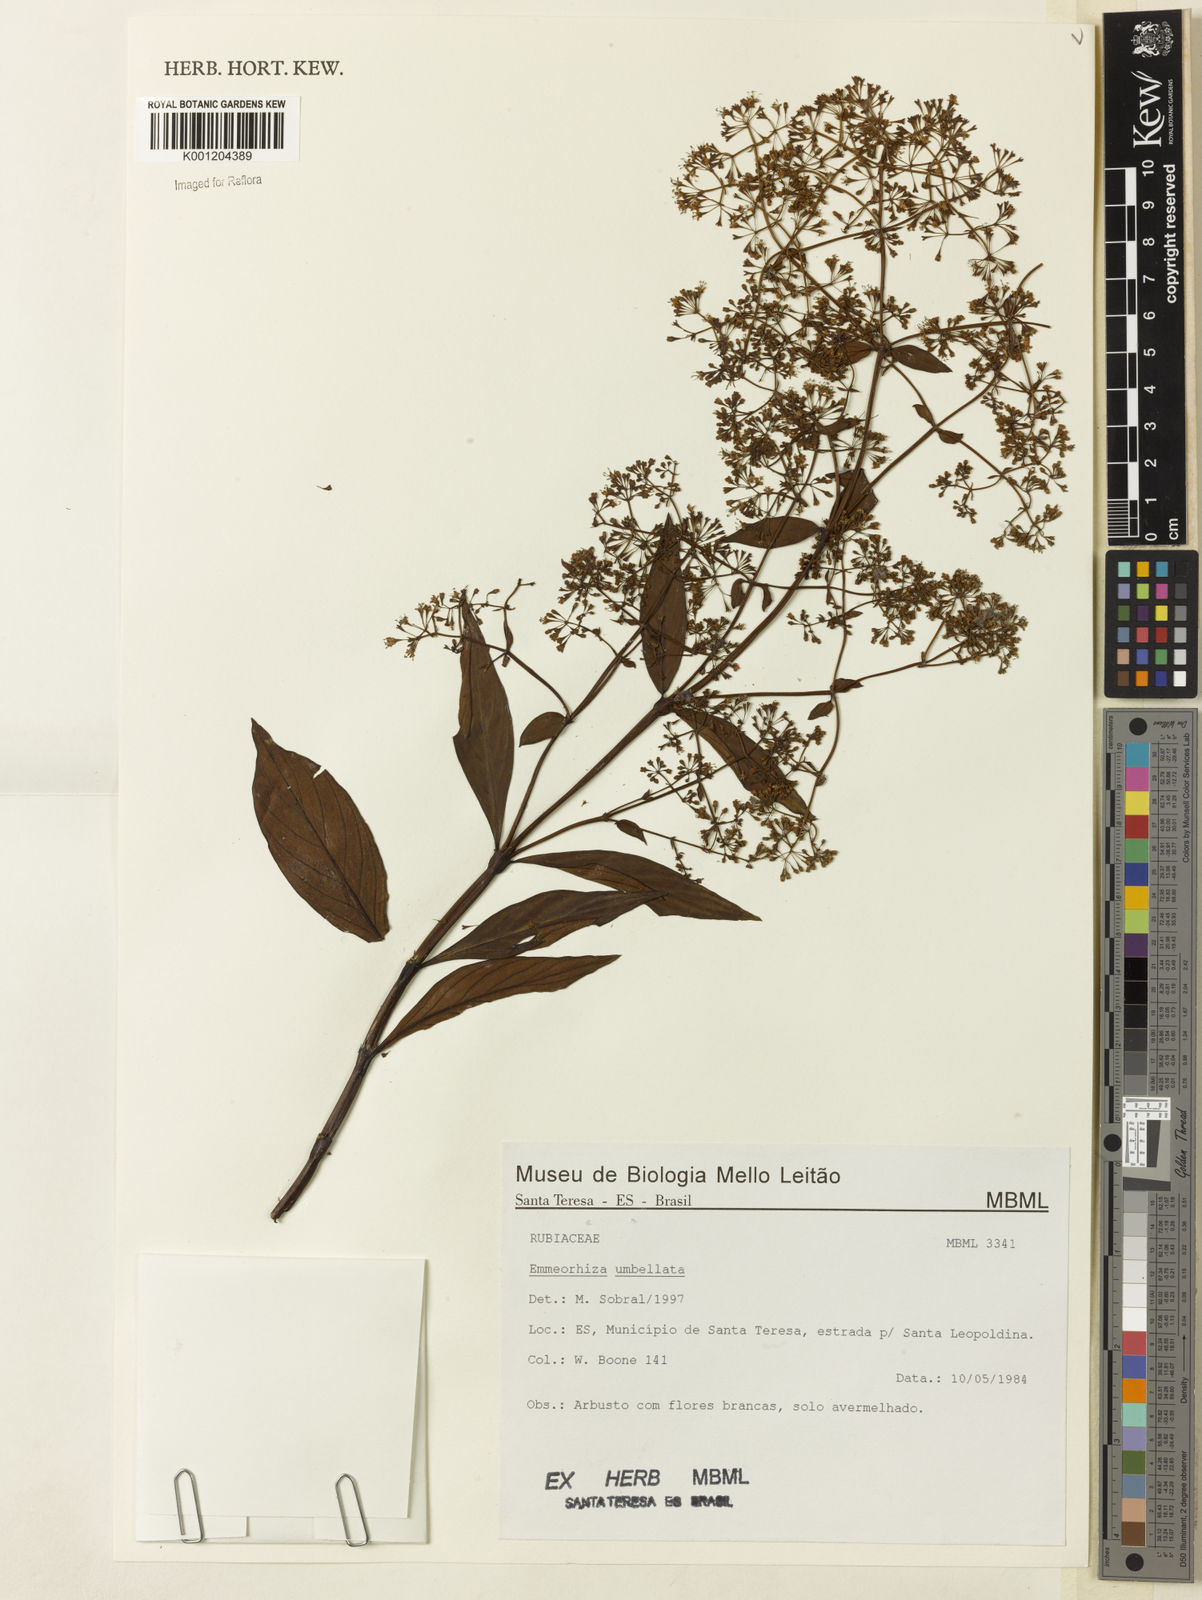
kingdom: Plantae
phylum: Tracheophyta
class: Magnoliopsida
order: Gentianales
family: Rubiaceae
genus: Emmeorhiza
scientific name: Emmeorhiza umbellata
